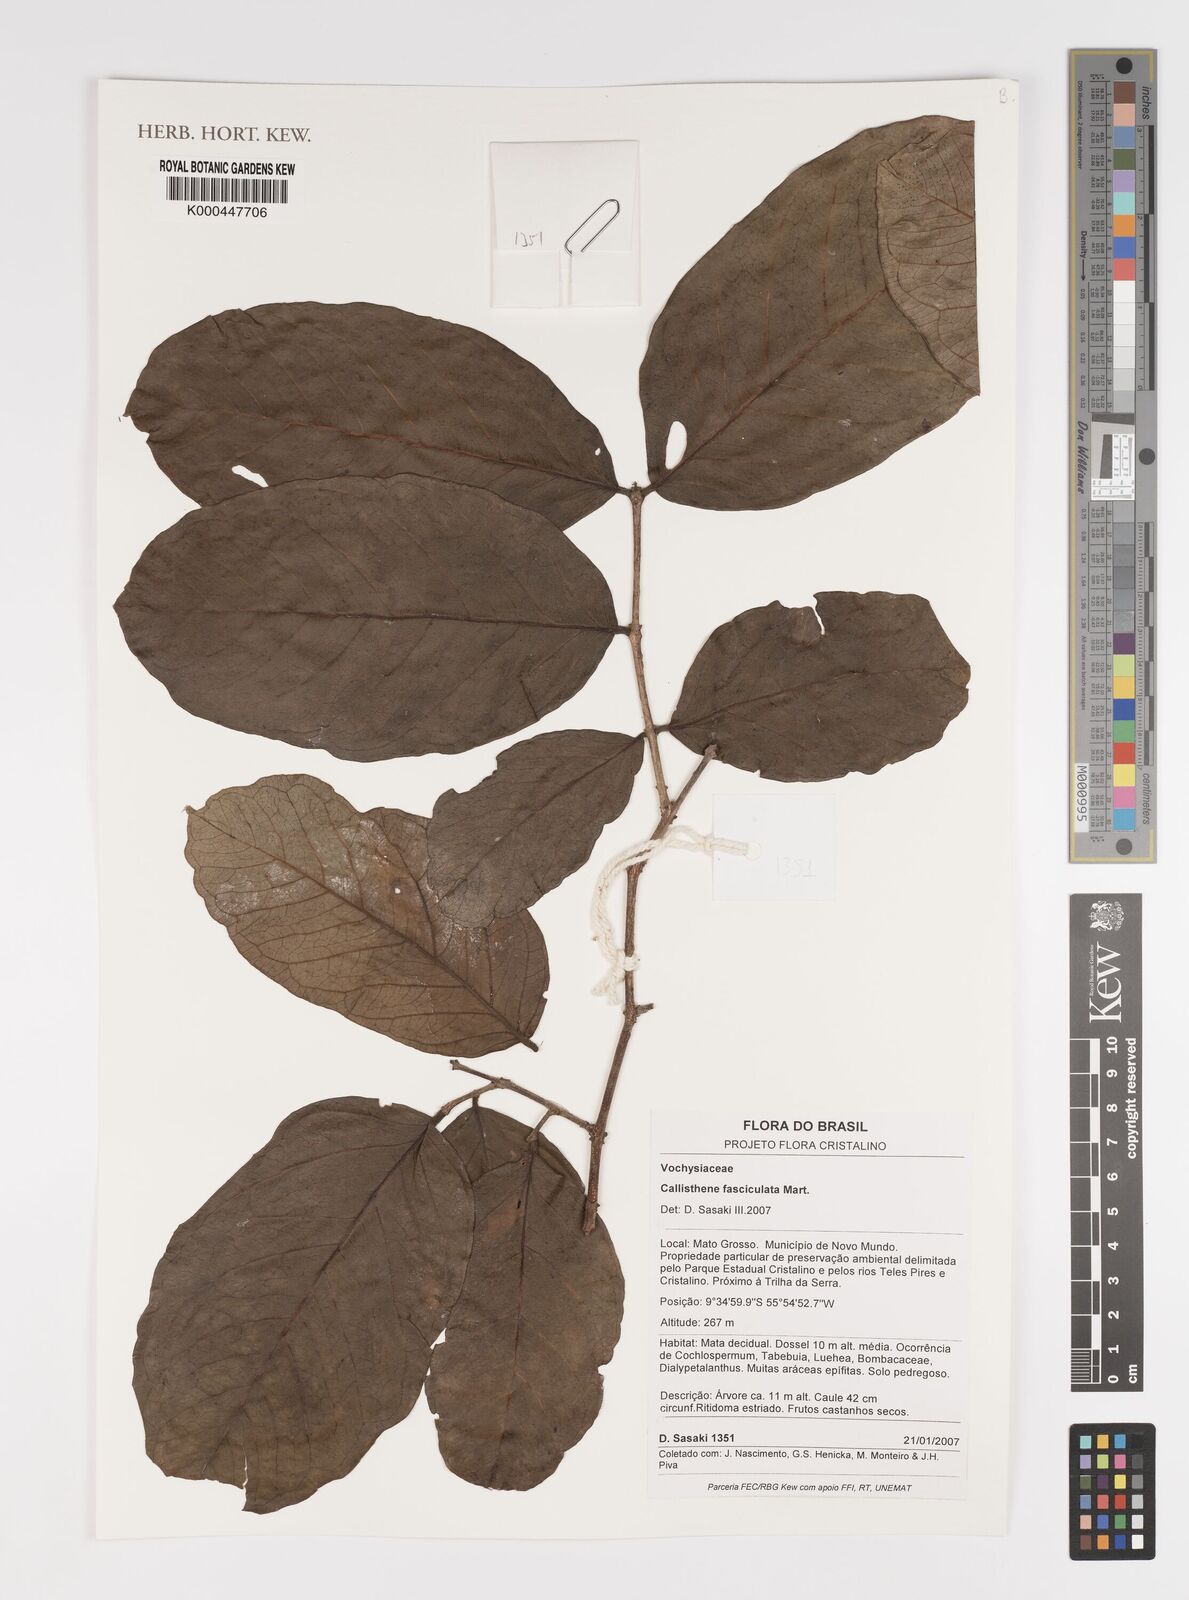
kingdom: Plantae
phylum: Tracheophyta
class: Magnoliopsida
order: Myrtales
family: Vochysiaceae
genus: Callisthene
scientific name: Callisthene fasciculata
